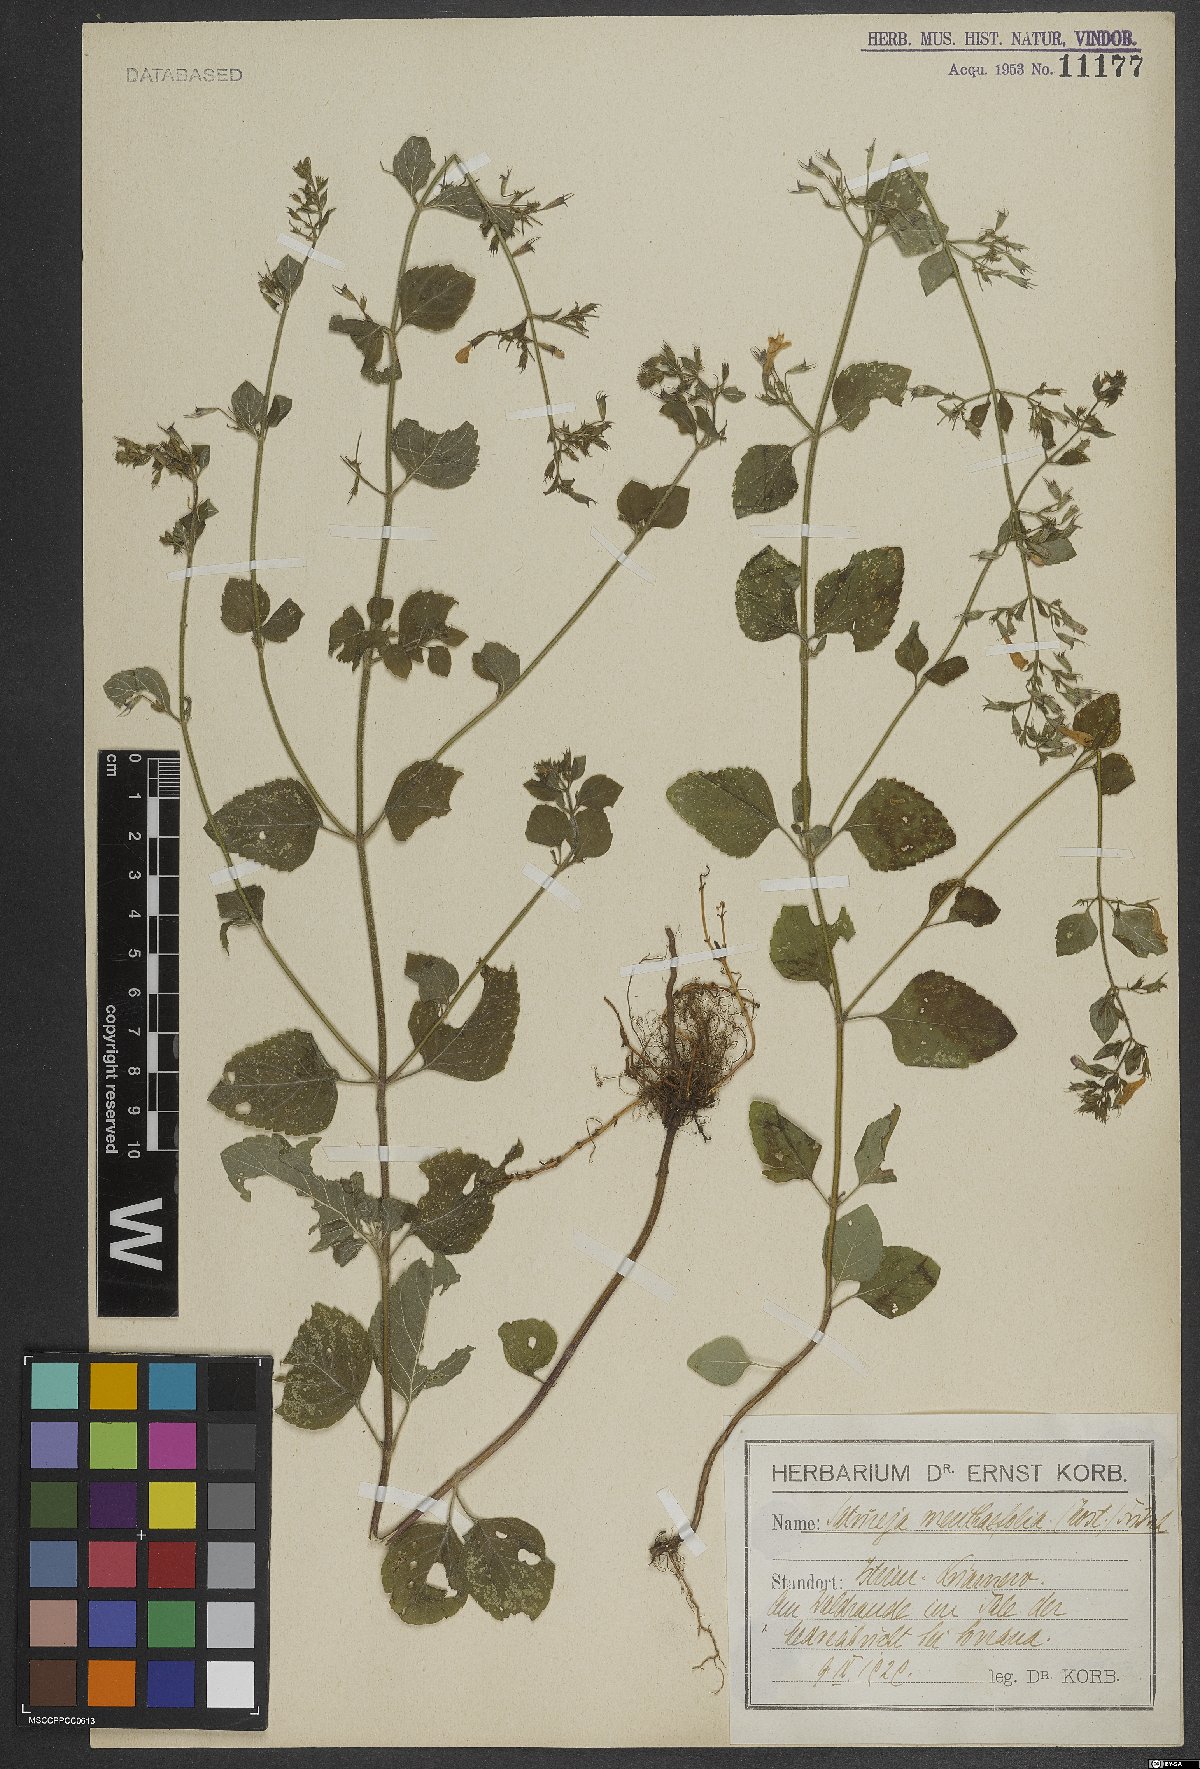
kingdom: Plantae
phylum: Tracheophyta
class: Magnoliopsida
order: Lamiales
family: Lamiaceae
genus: Clinopodium
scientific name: Clinopodium menthifolium
